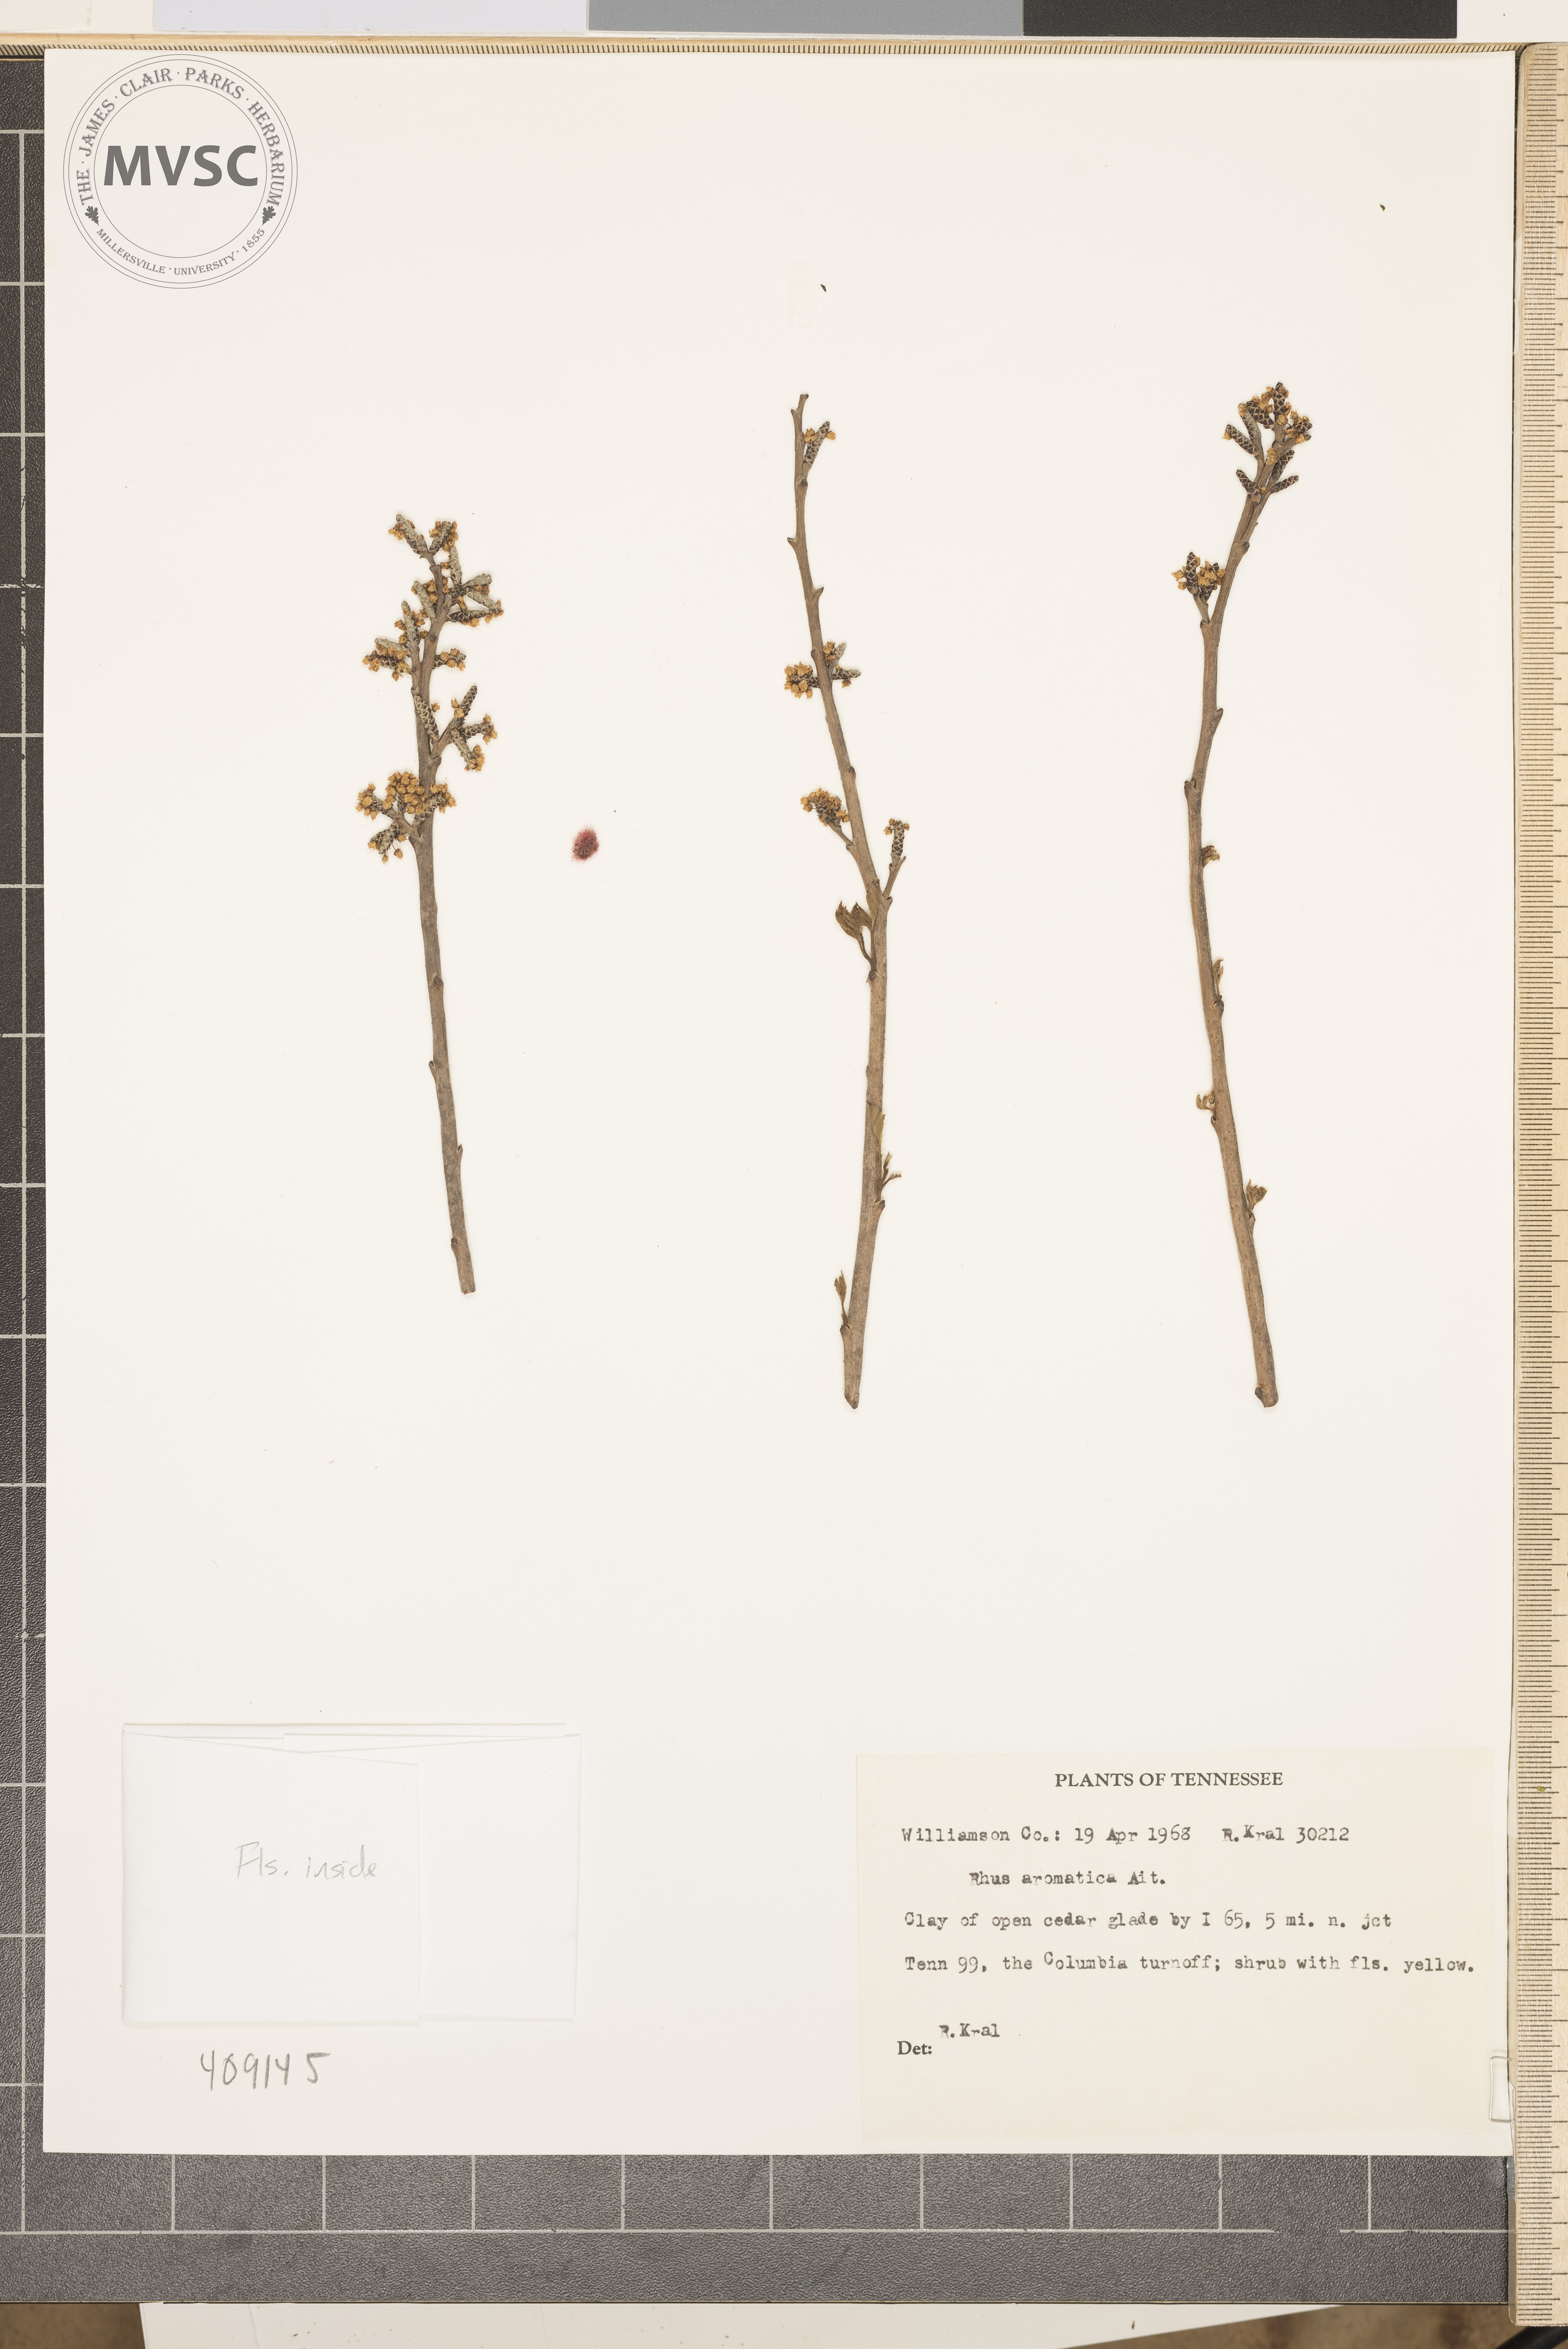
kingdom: Plantae
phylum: Tracheophyta
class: Magnoliopsida
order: Sapindales
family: Anacardiaceae
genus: Rhus
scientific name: Rhus aromatica
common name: Aromatic sumac
